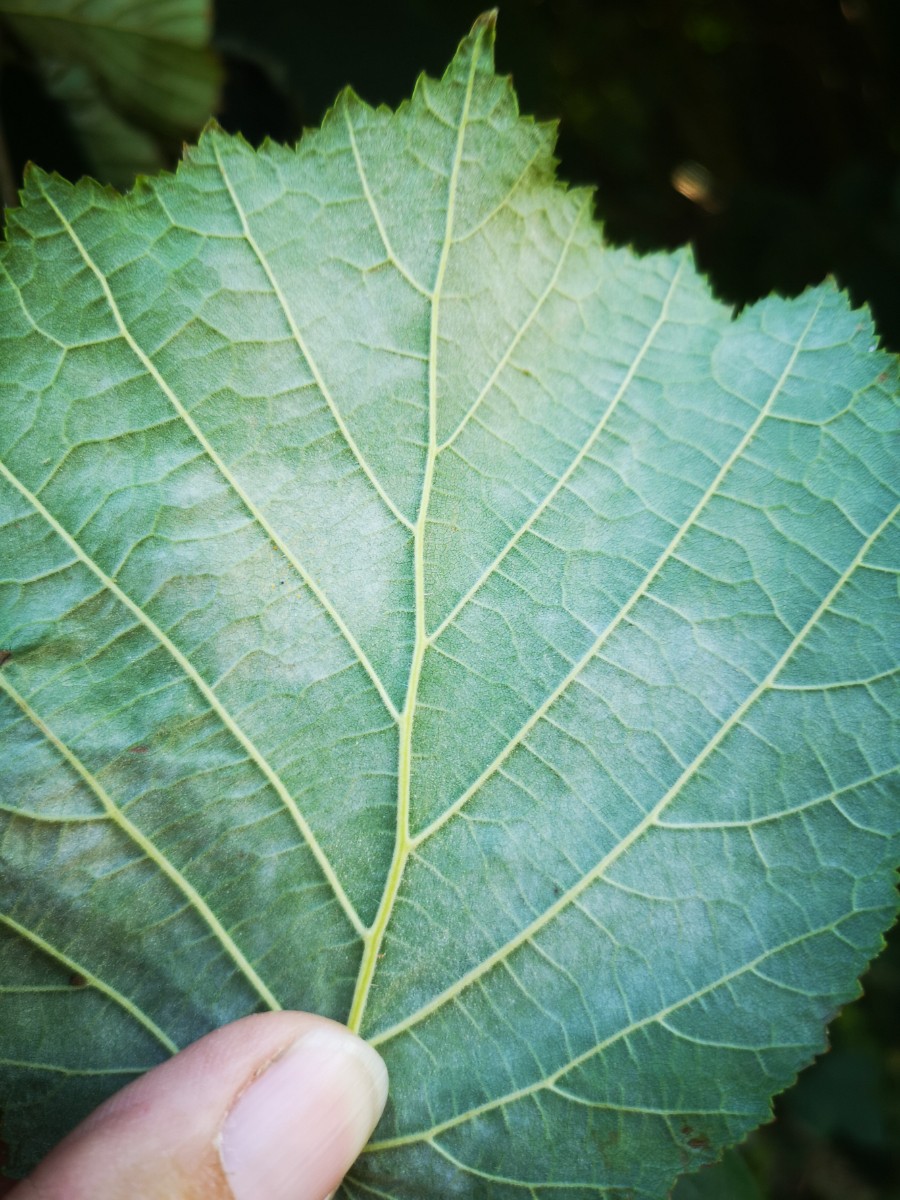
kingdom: Fungi
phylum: Ascomycota
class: Leotiomycetes
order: Helotiales
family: Erysiphaceae
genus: Phyllactinia
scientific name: Phyllactinia guttata
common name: hassel-meldug
